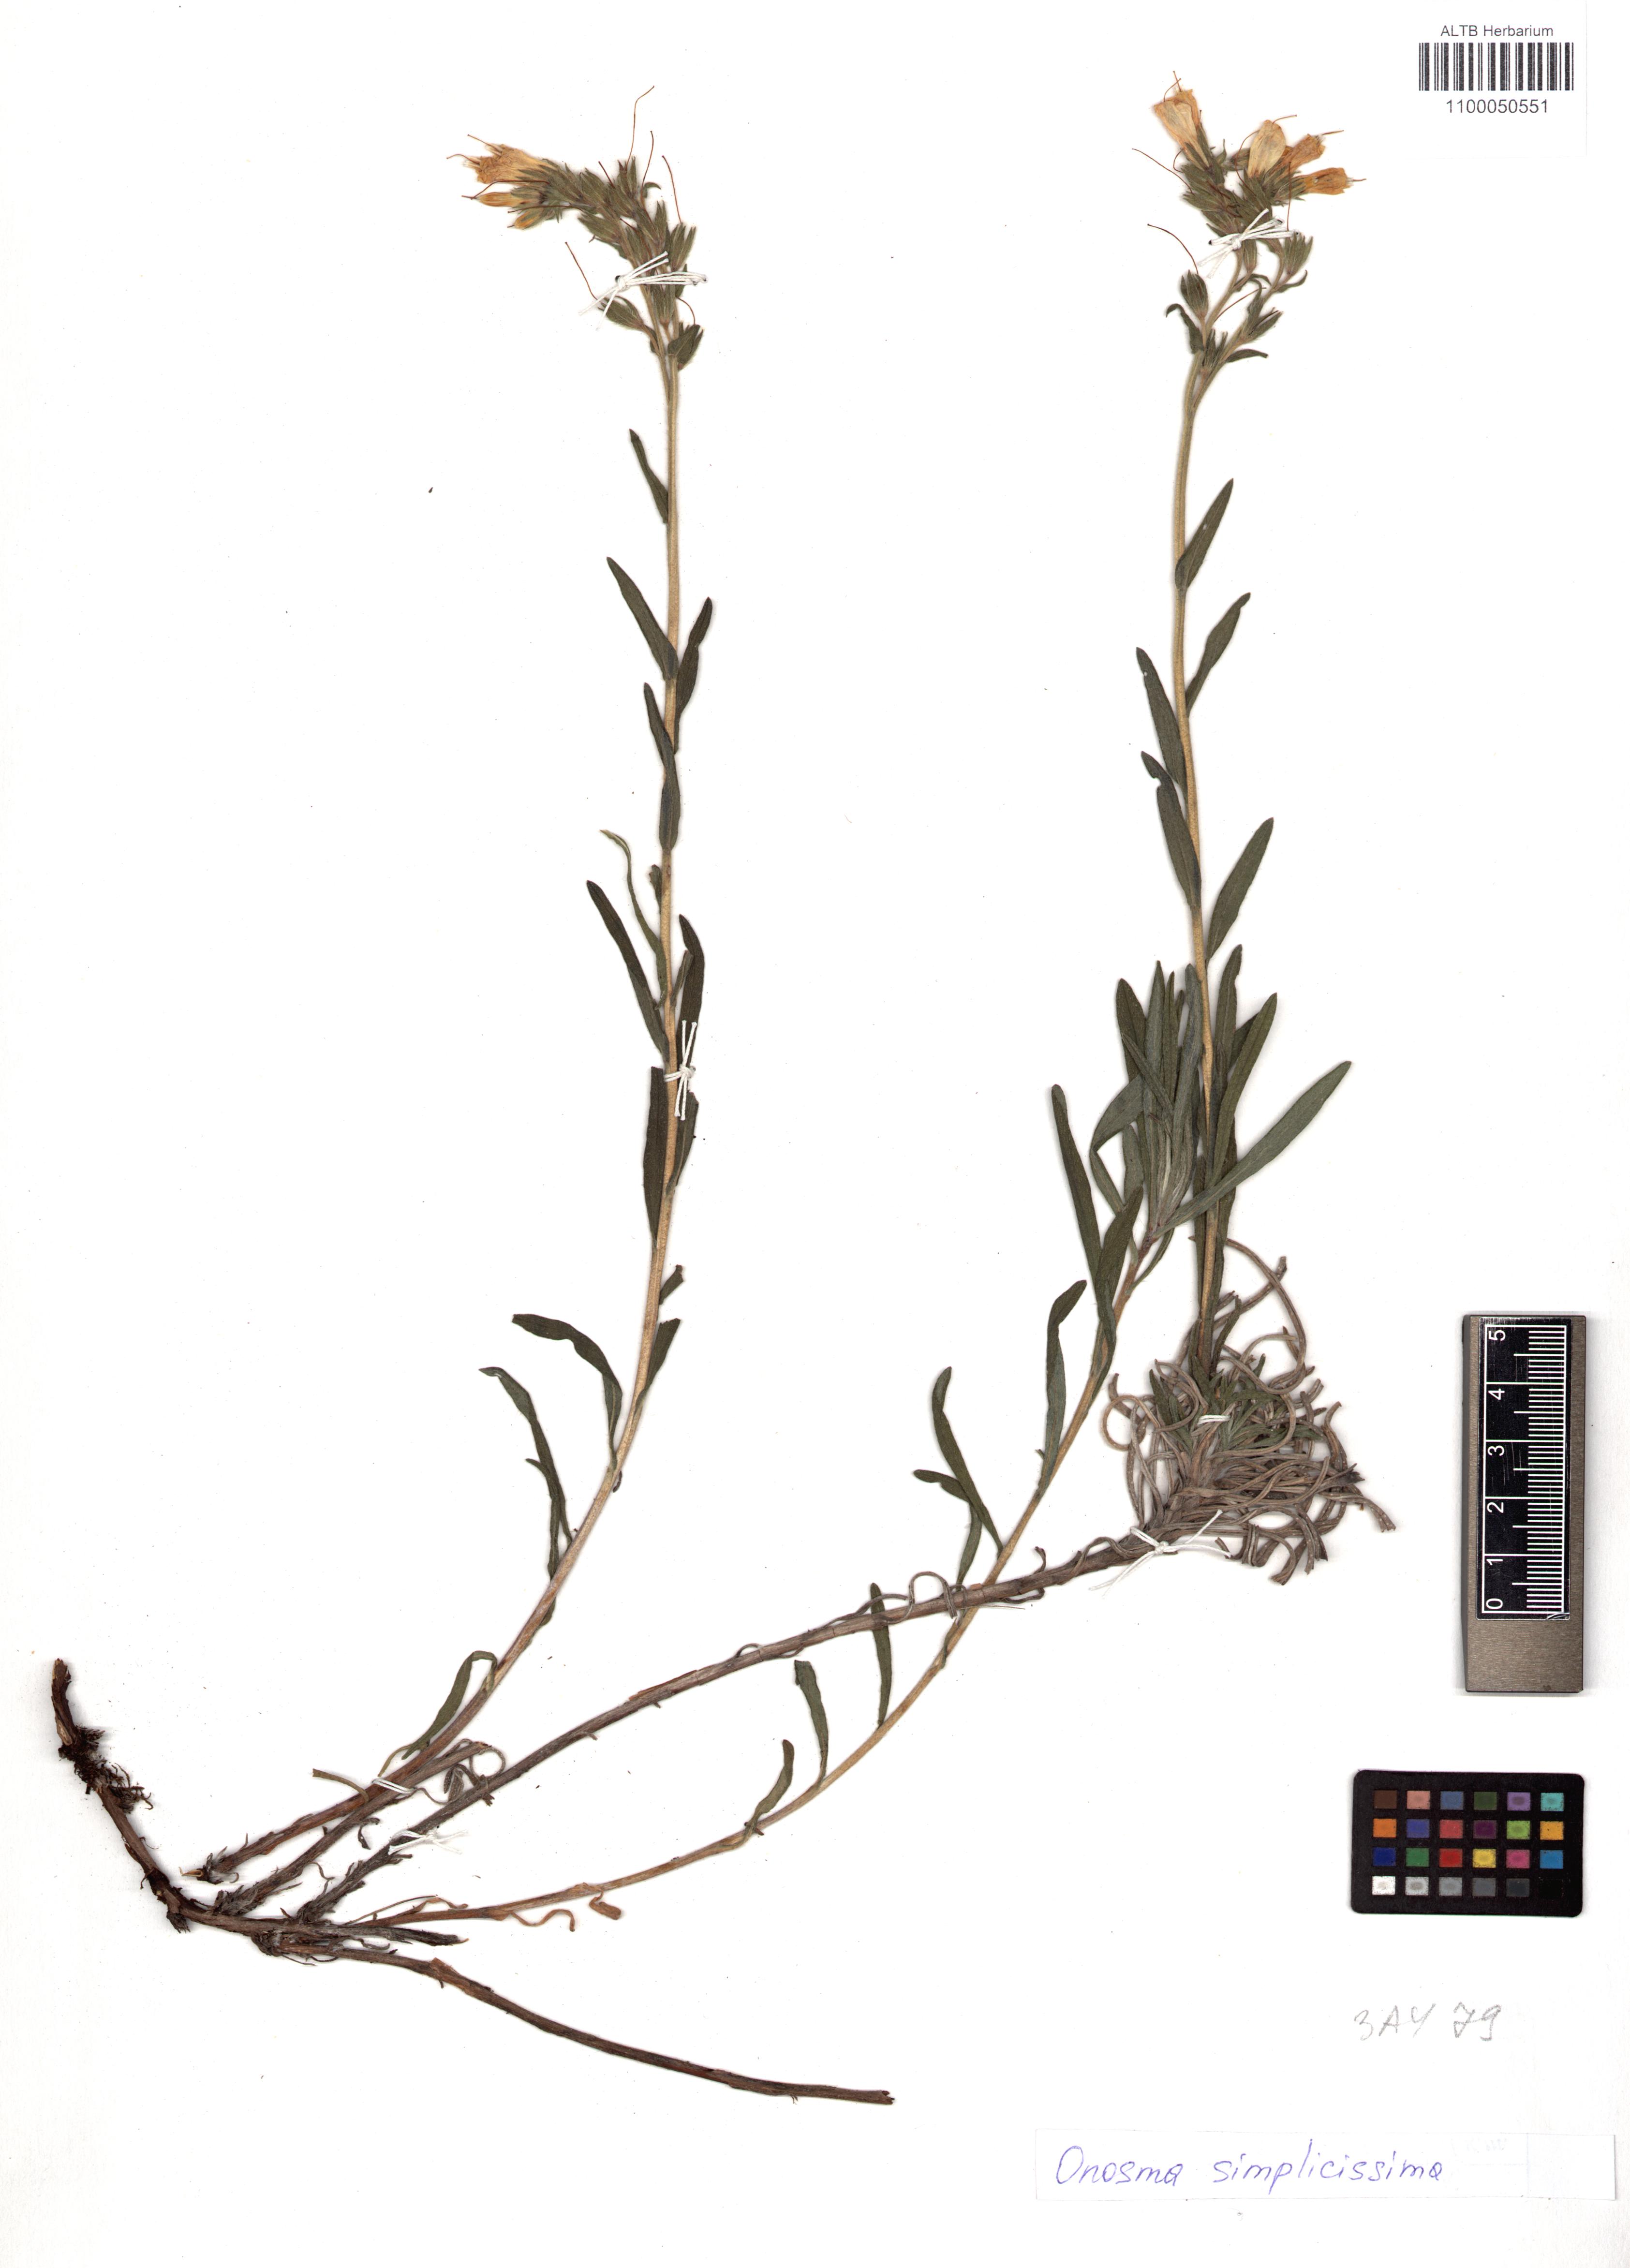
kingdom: Plantae
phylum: Tracheophyta
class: Magnoliopsida
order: Boraginales
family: Boraginaceae
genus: Onosma
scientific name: Onosma simplicissima
